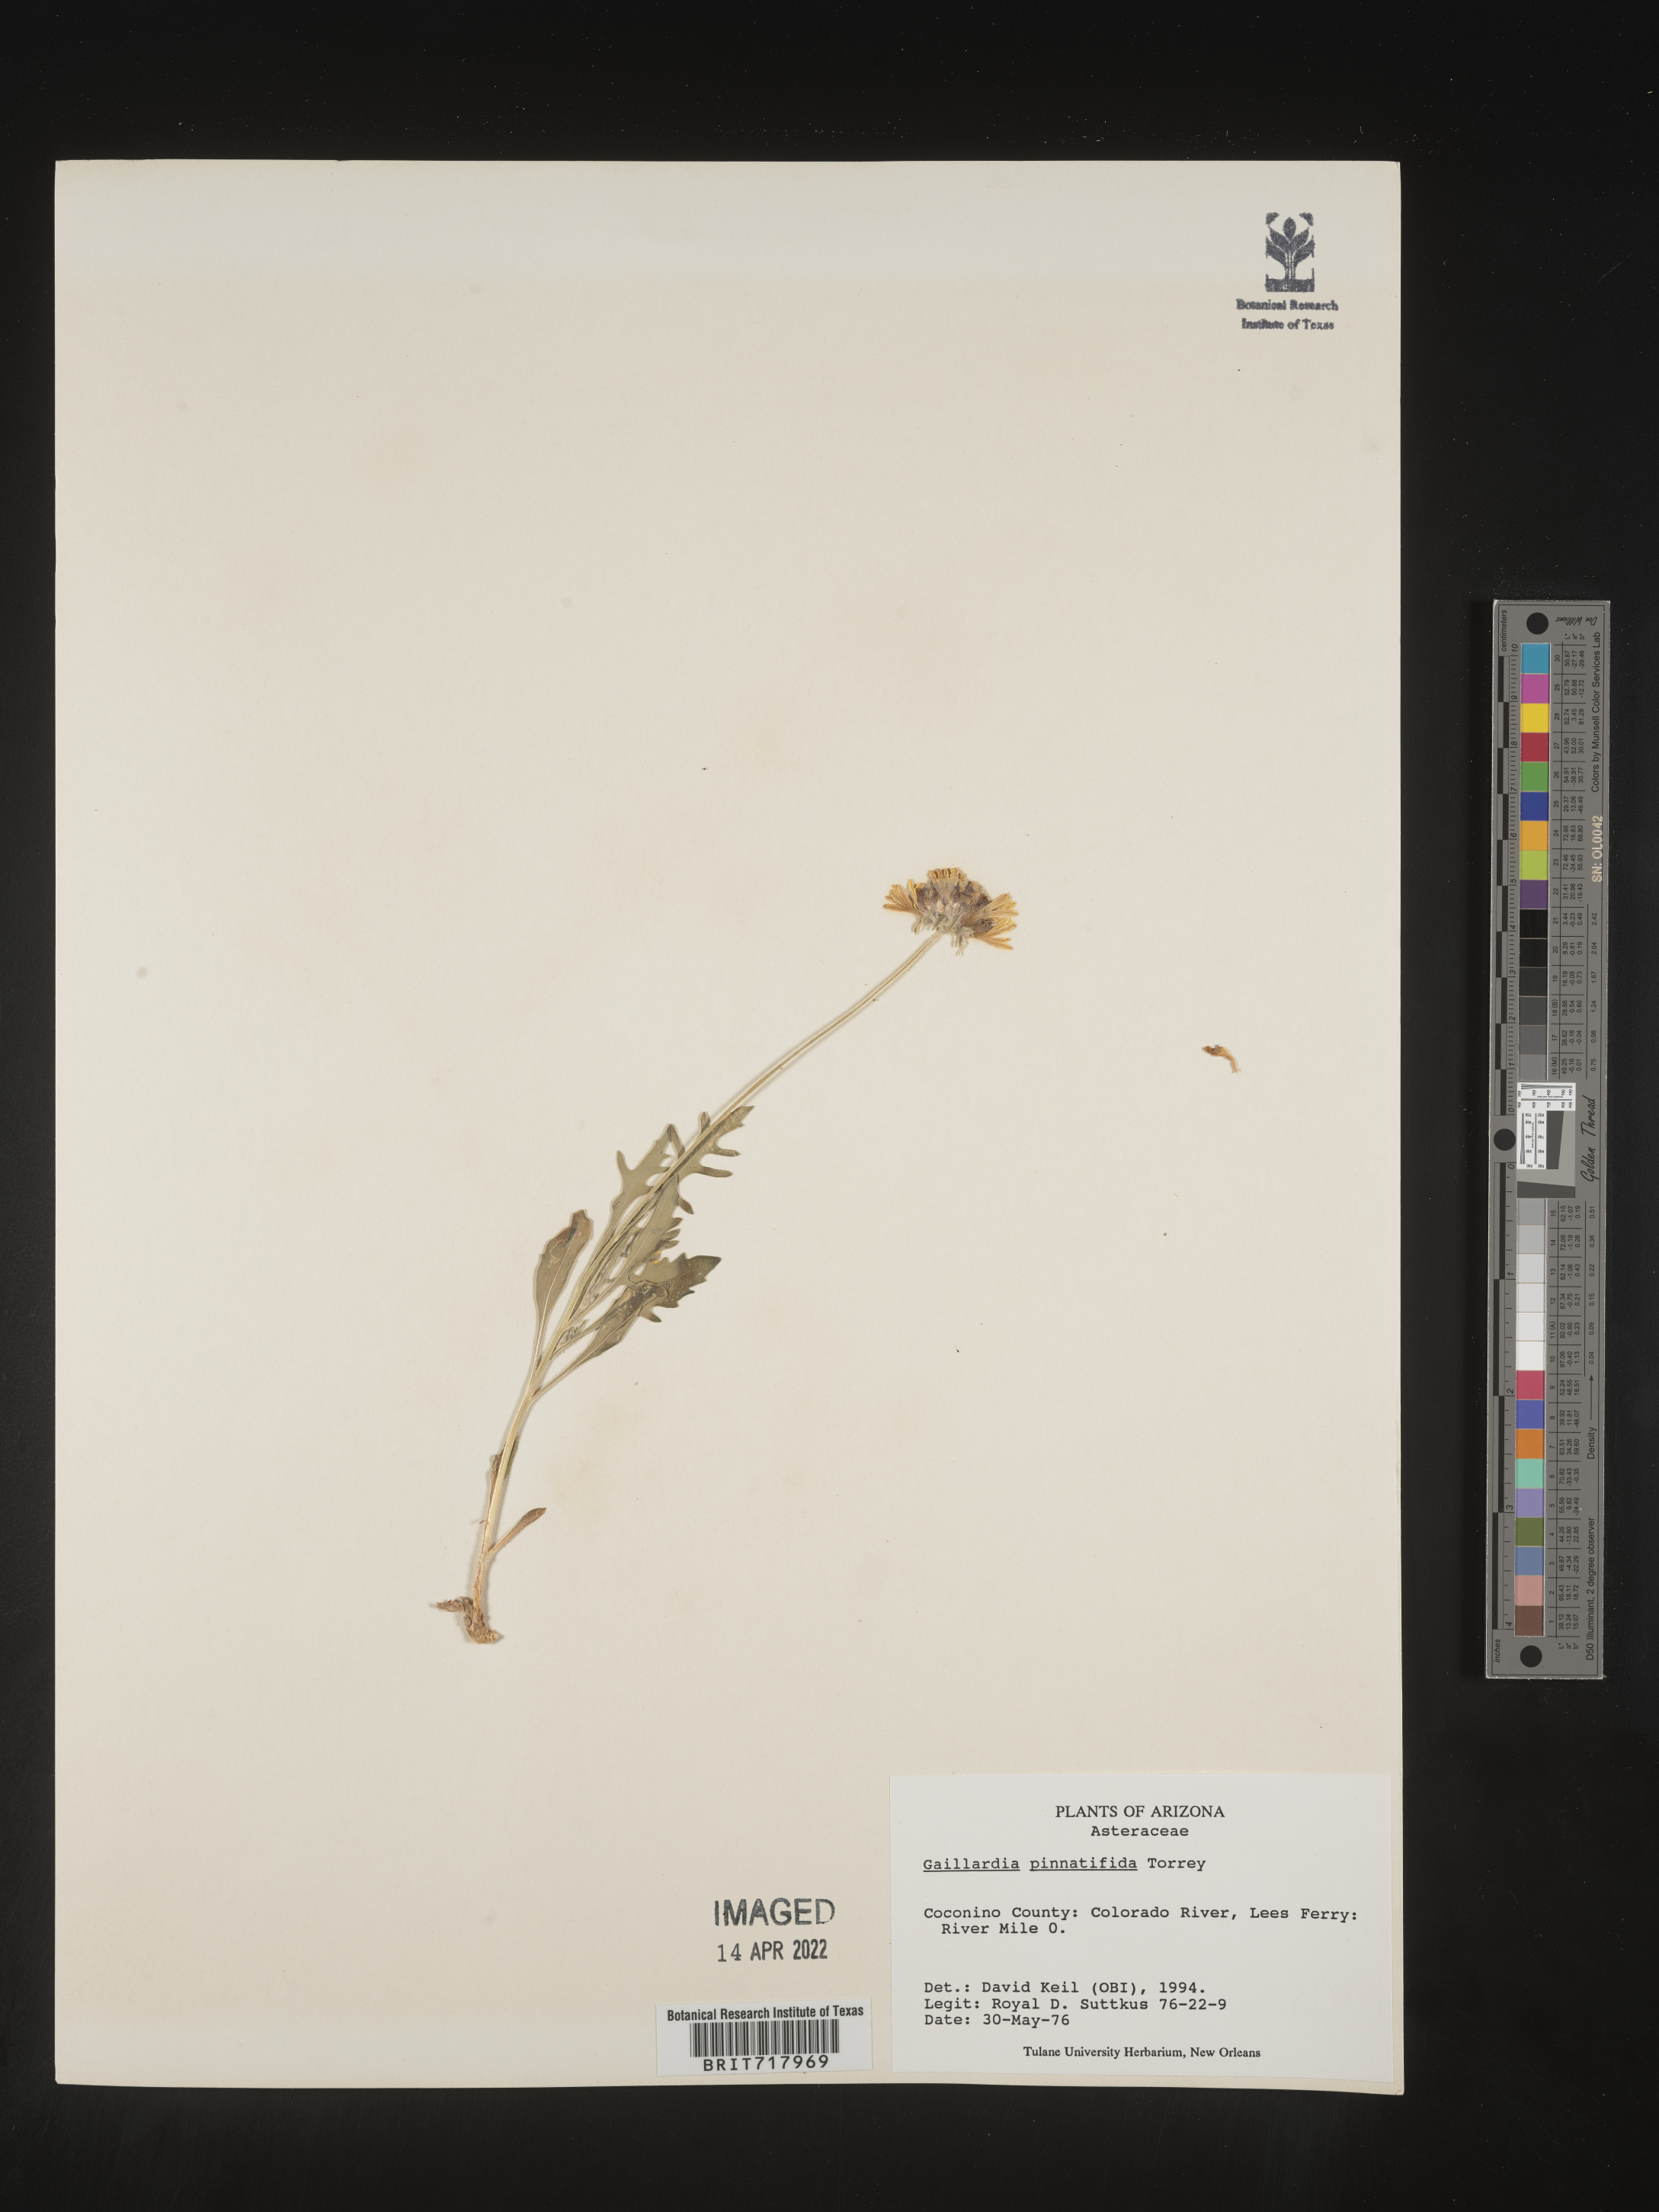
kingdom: Plantae
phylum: Tracheophyta
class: Magnoliopsida
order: Asterales
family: Asteraceae
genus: Gaillardia
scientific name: Gaillardia pinnatifida
